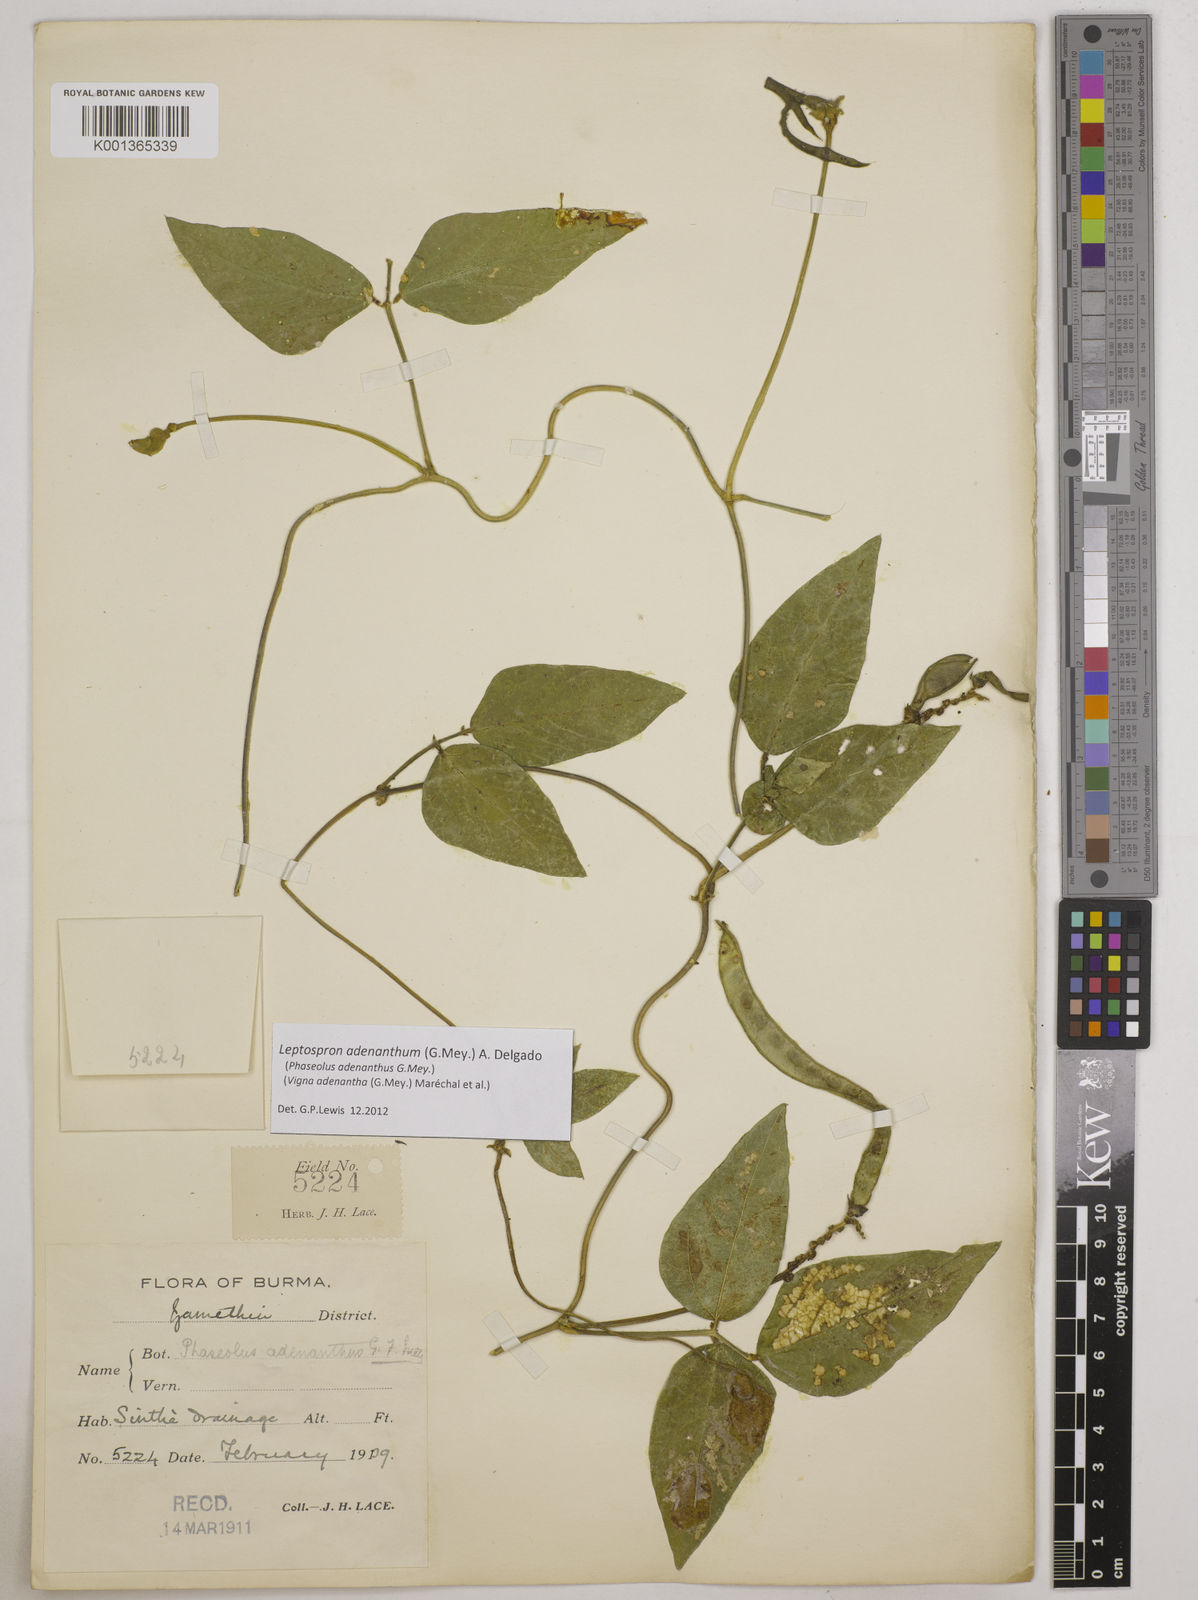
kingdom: Plantae
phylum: Tracheophyta
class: Magnoliopsida
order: Fabales
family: Fabaceae
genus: Leptospron
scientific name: Leptospron adenanthum
